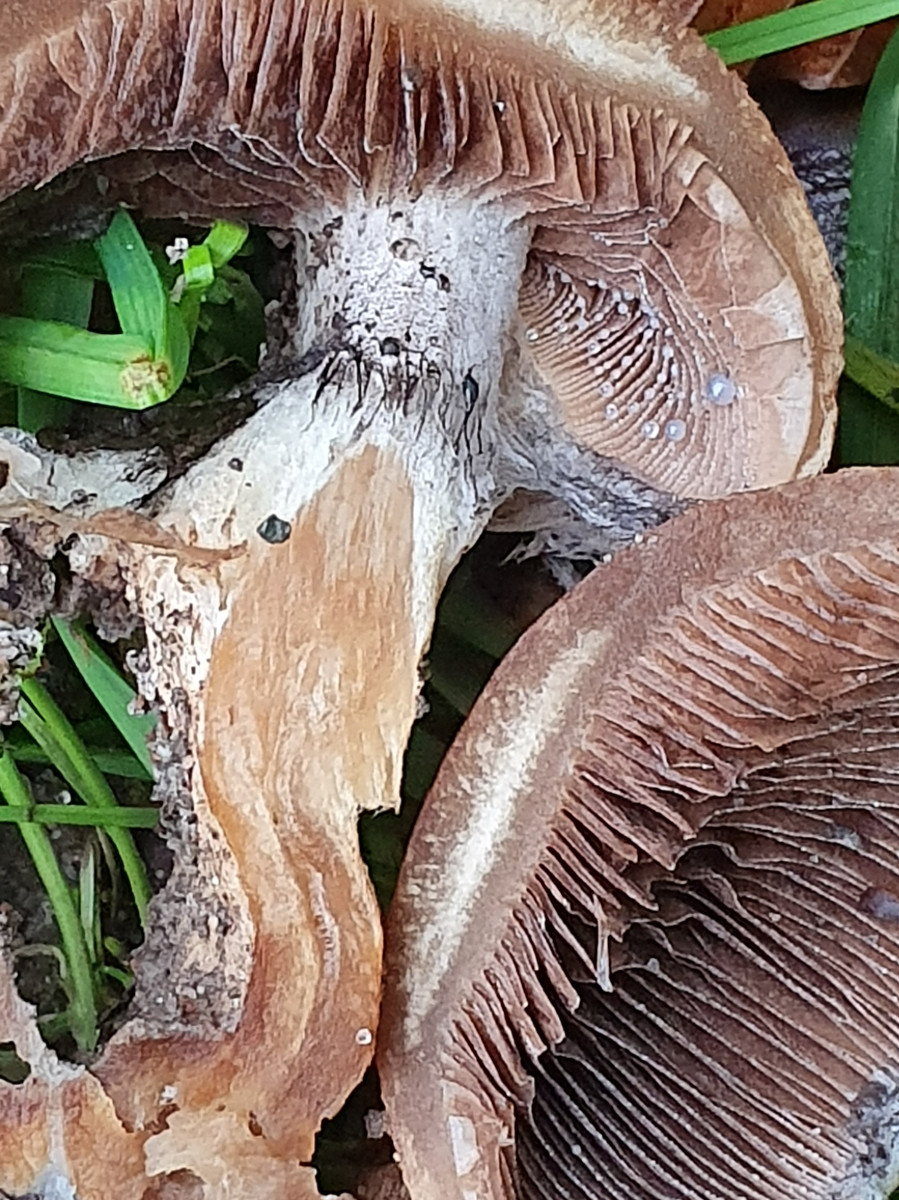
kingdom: Fungi
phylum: Basidiomycota
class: Agaricomycetes
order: Agaricales
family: Psathyrellaceae
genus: Lacrymaria
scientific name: Lacrymaria lacrymabunda
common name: grædende mørkhat
